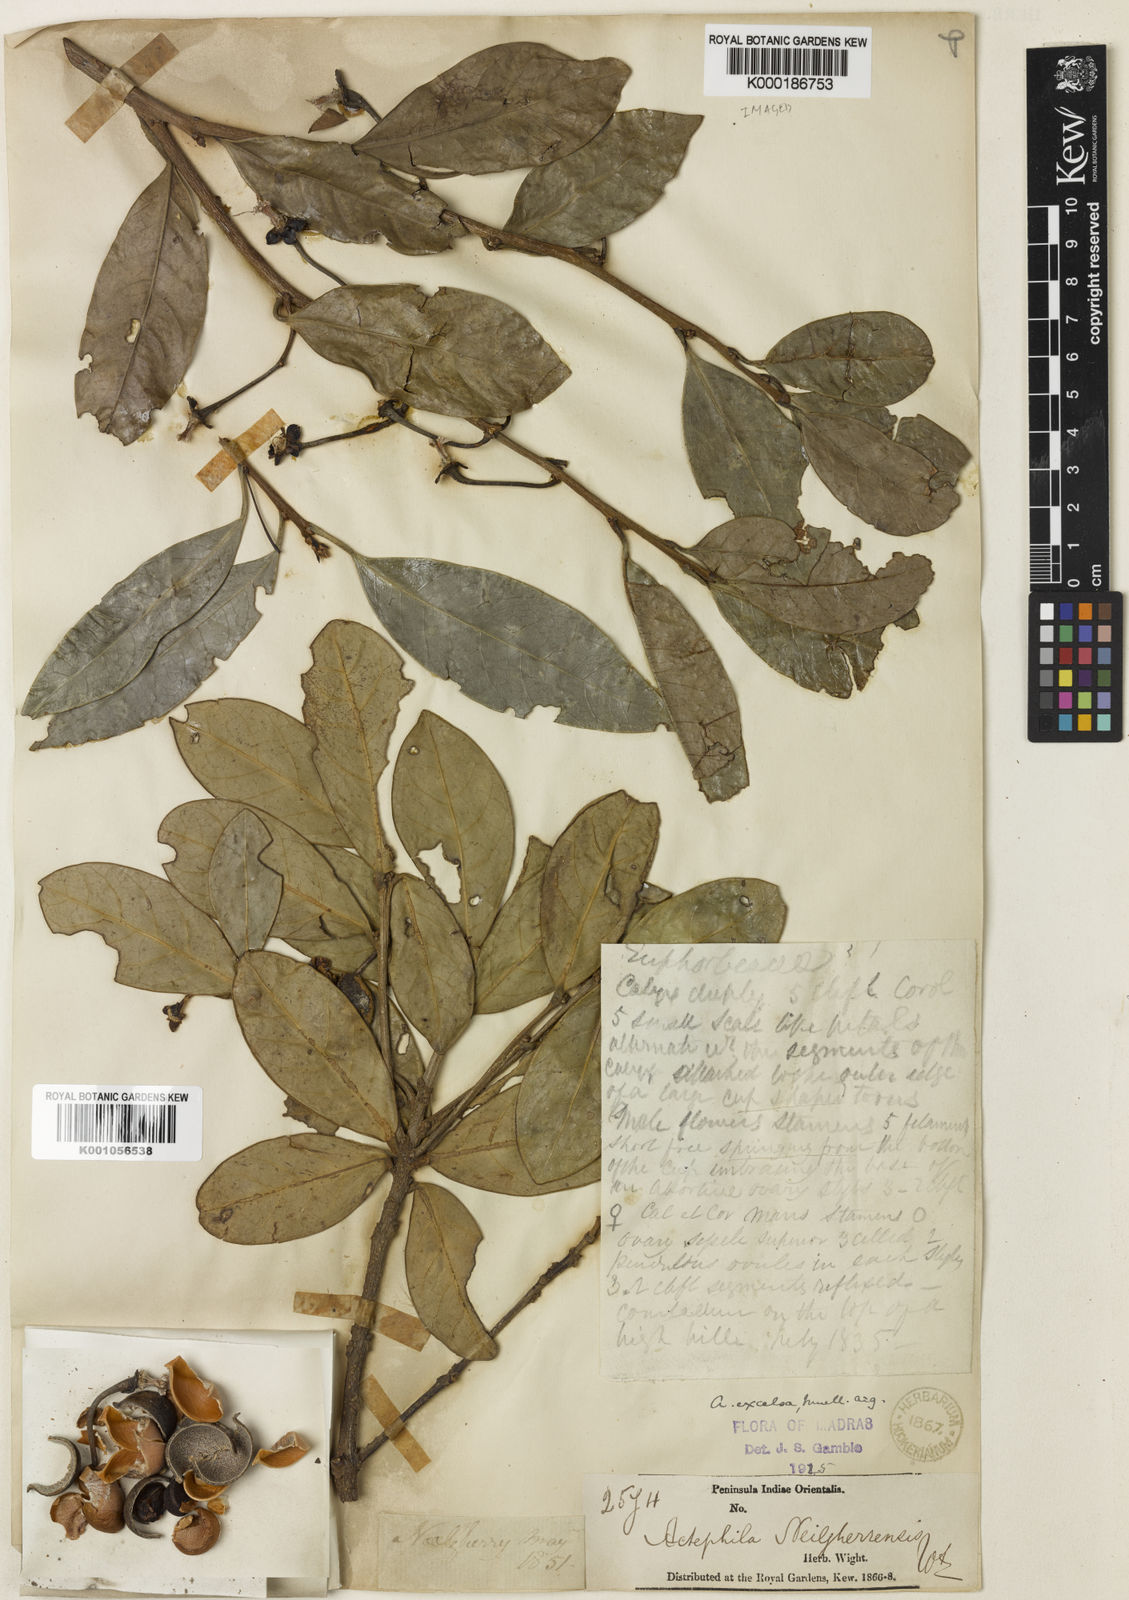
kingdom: Plantae
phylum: Tracheophyta
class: Magnoliopsida
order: Malpighiales
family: Phyllanthaceae
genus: Actephila
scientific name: Actephila
